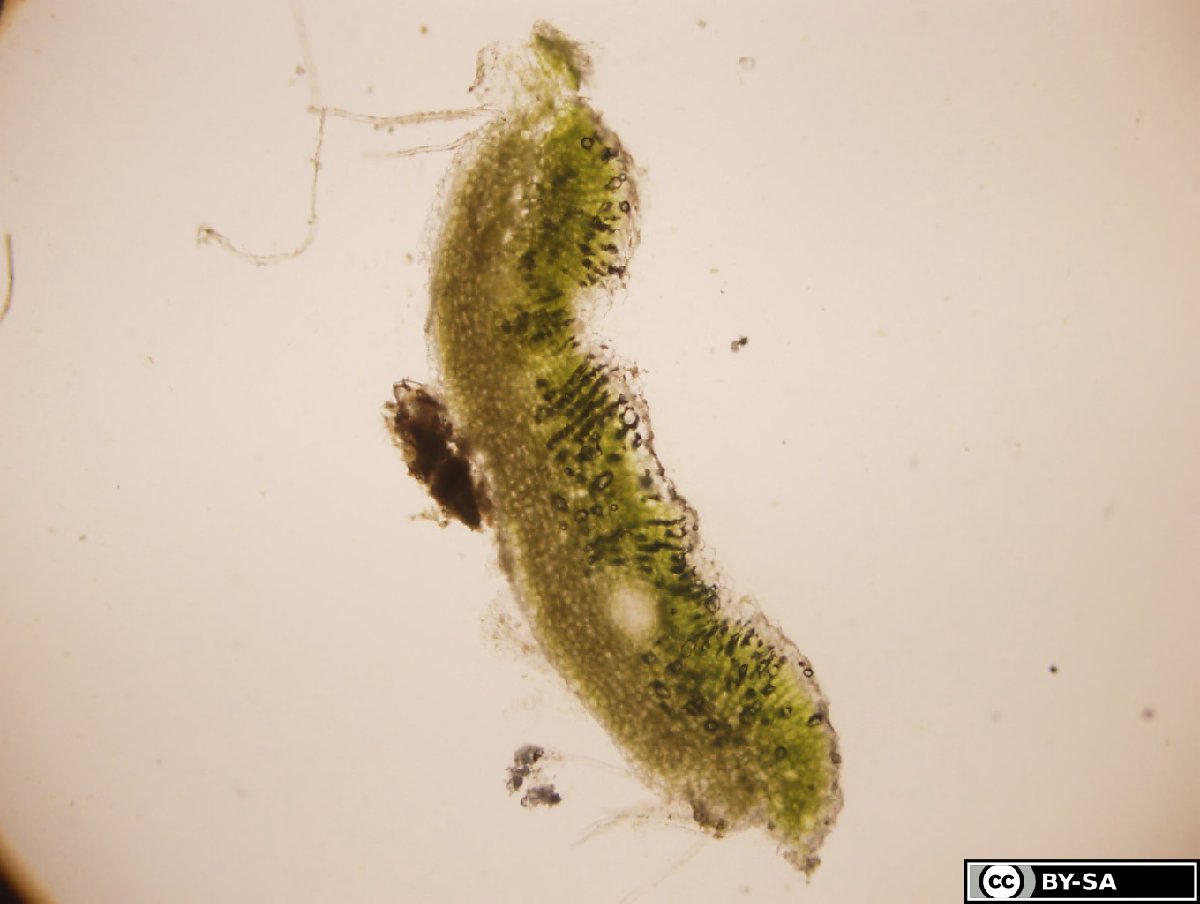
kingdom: Plantae
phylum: Marchantiophyta
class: Marchantiopsida
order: Marchantiales
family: Ricciaceae
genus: Riccia
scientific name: Riccia bifurca
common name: Lizard crystalwort
